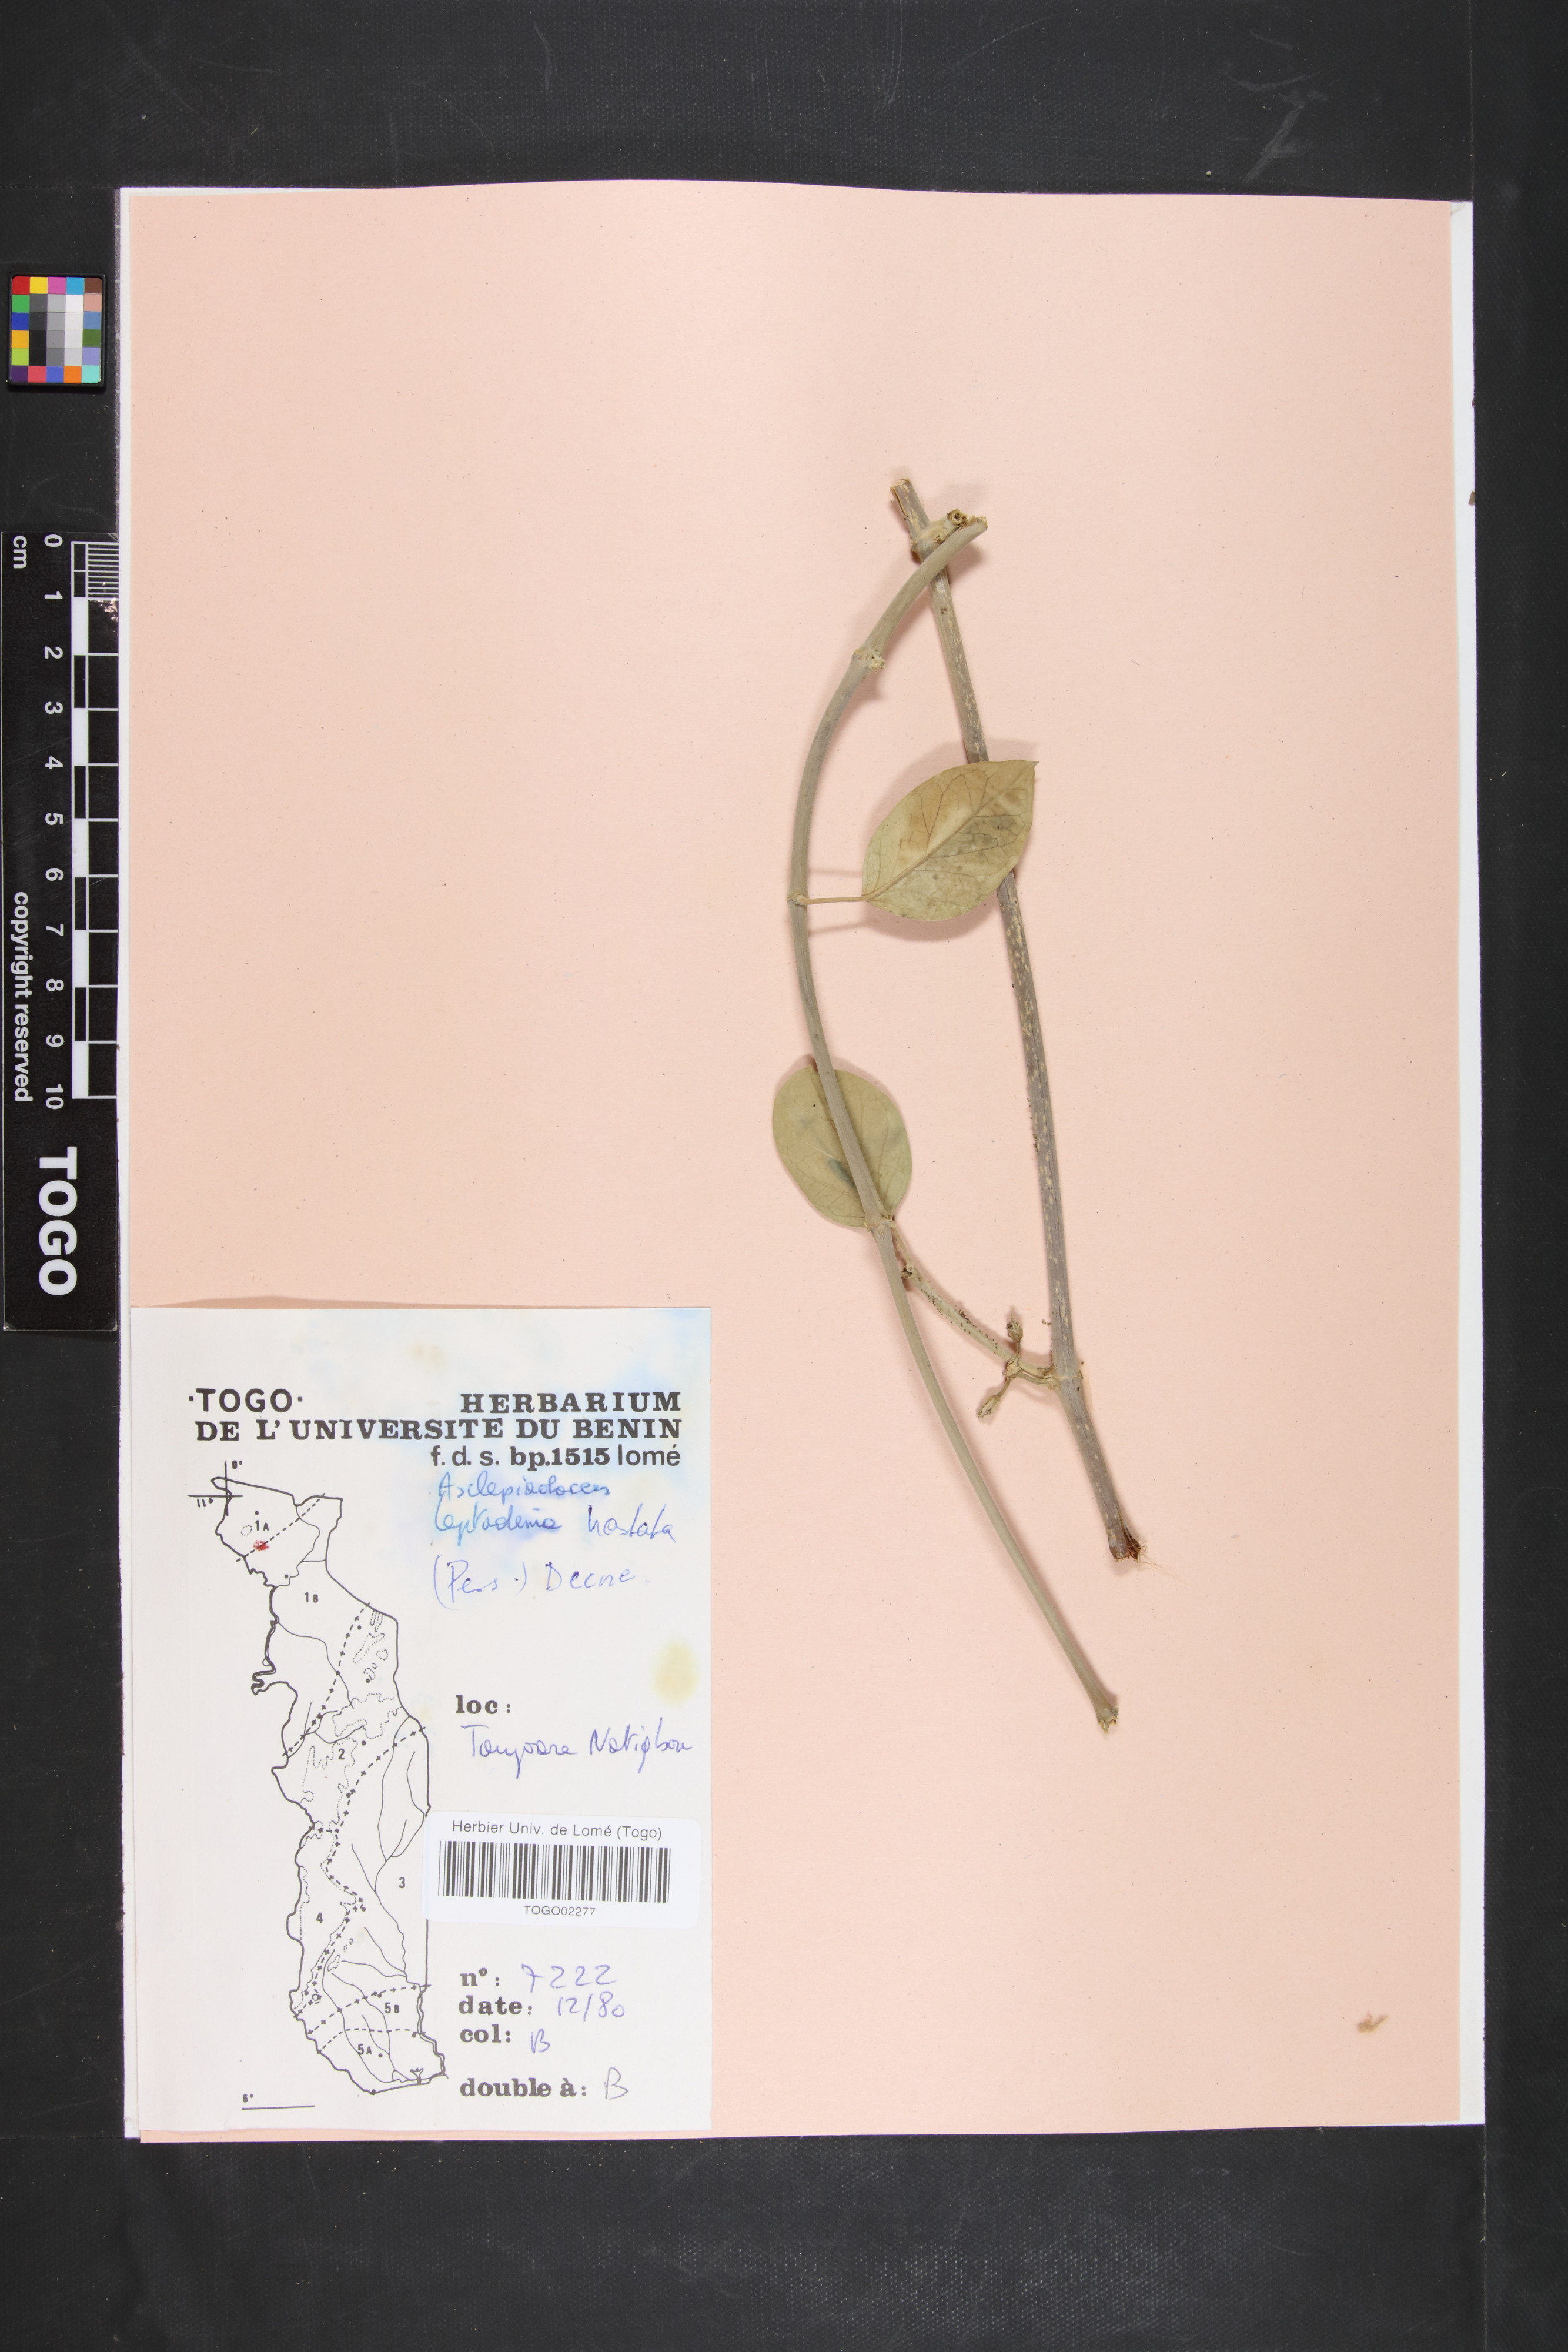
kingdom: Plantae
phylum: Tracheophyta
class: Magnoliopsida
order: Gentianales
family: Apocynaceae
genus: Leptadenia
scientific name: Leptadenia lanceolata
